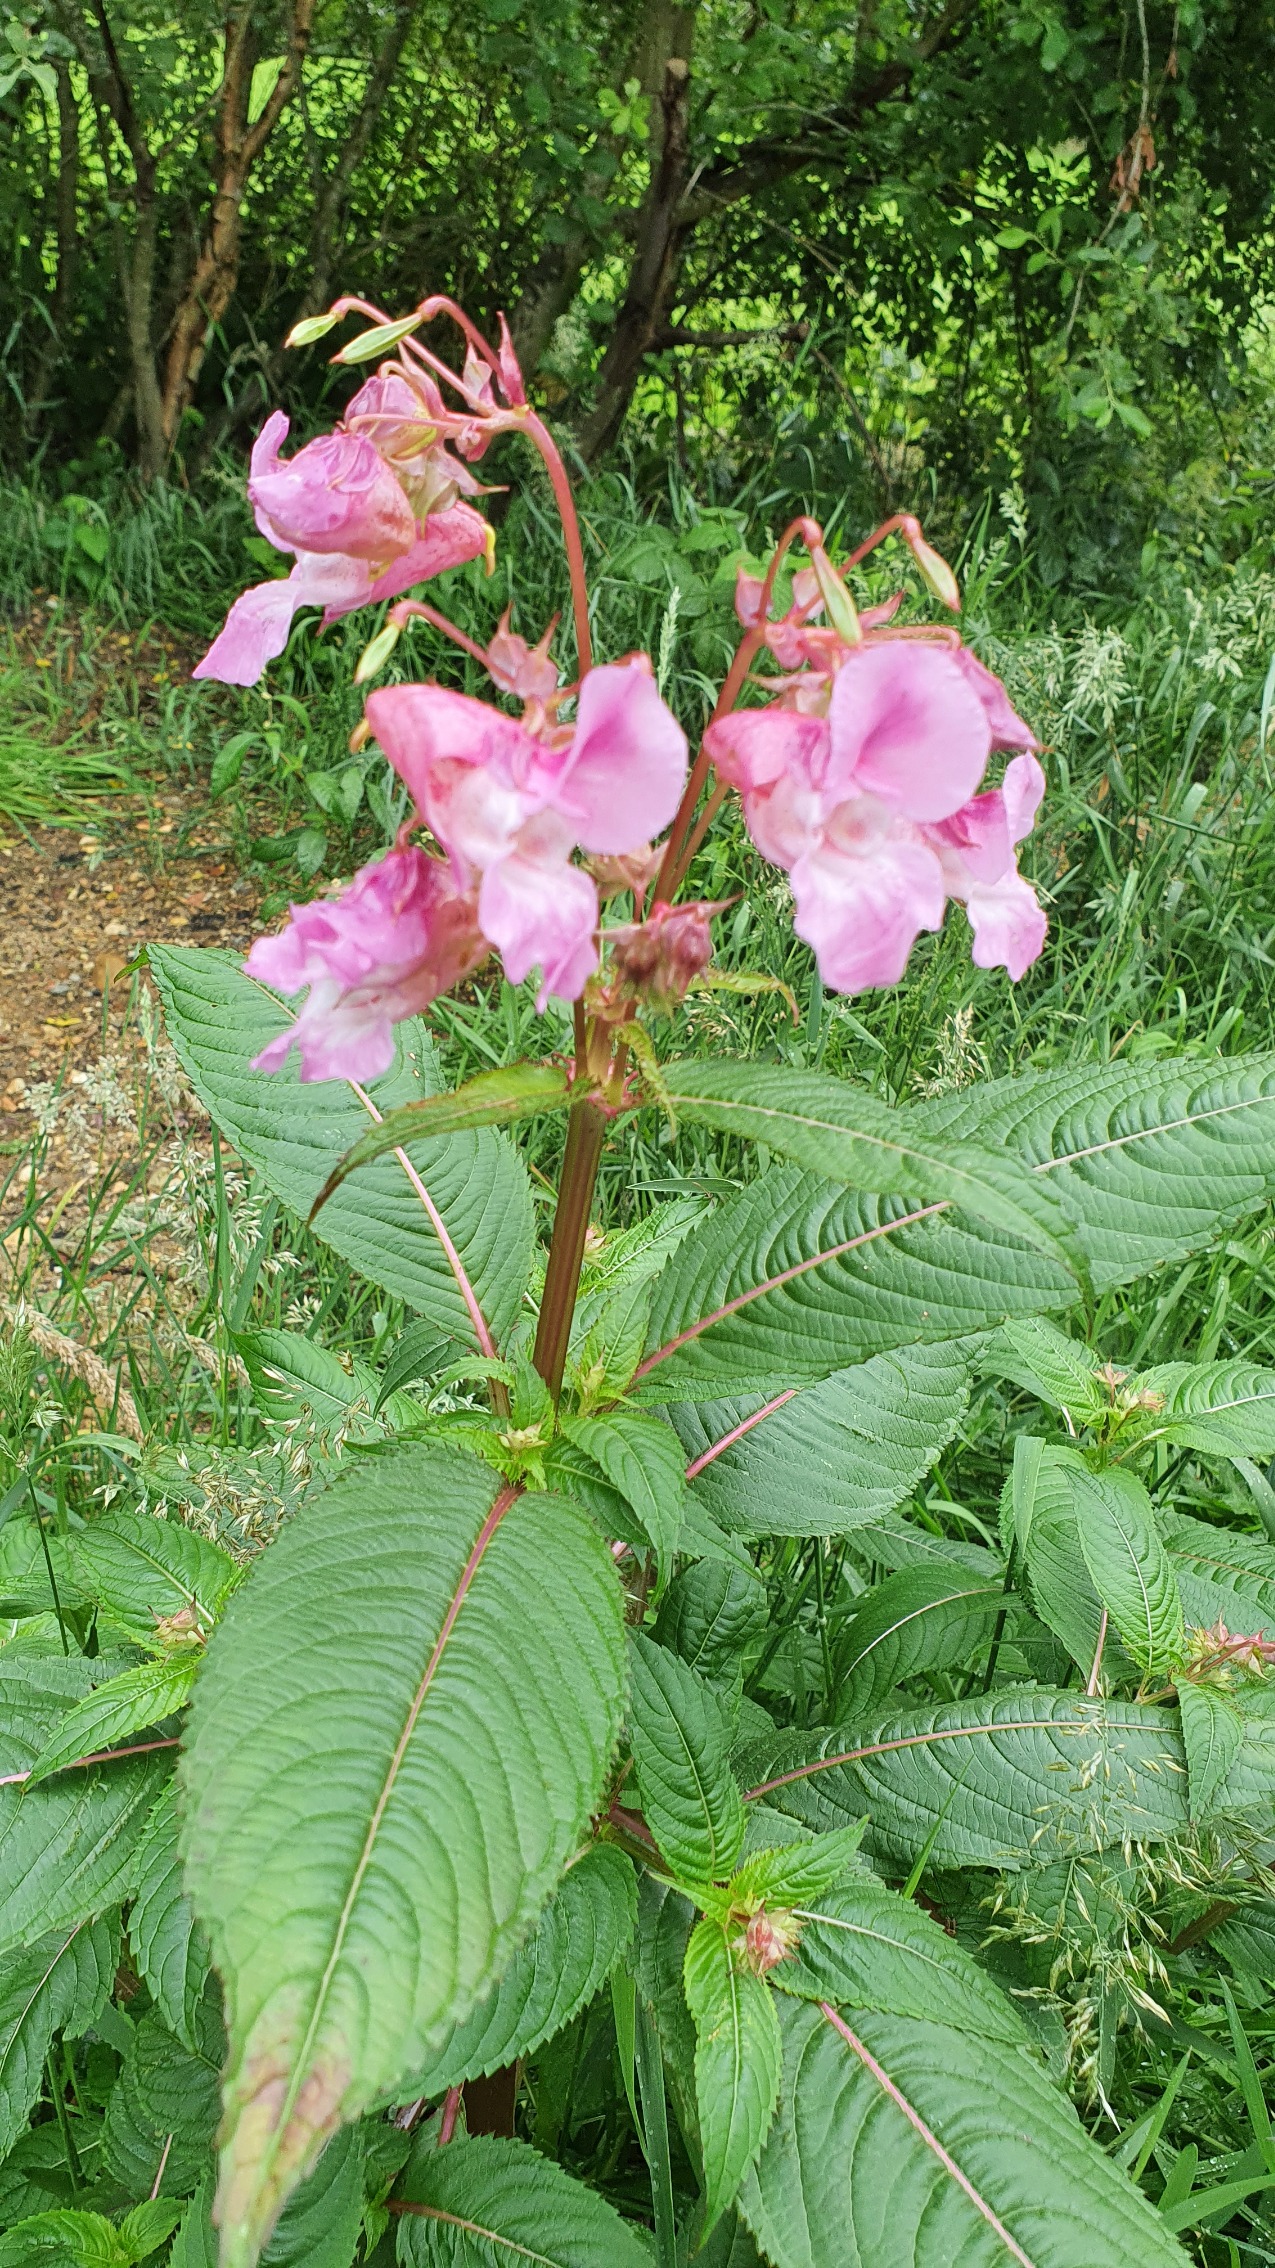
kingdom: Plantae
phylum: Tracheophyta
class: Magnoliopsida
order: Ericales
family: Balsaminaceae
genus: Impatiens
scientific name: Impatiens glandulifera
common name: Kæmpe-balsamin
